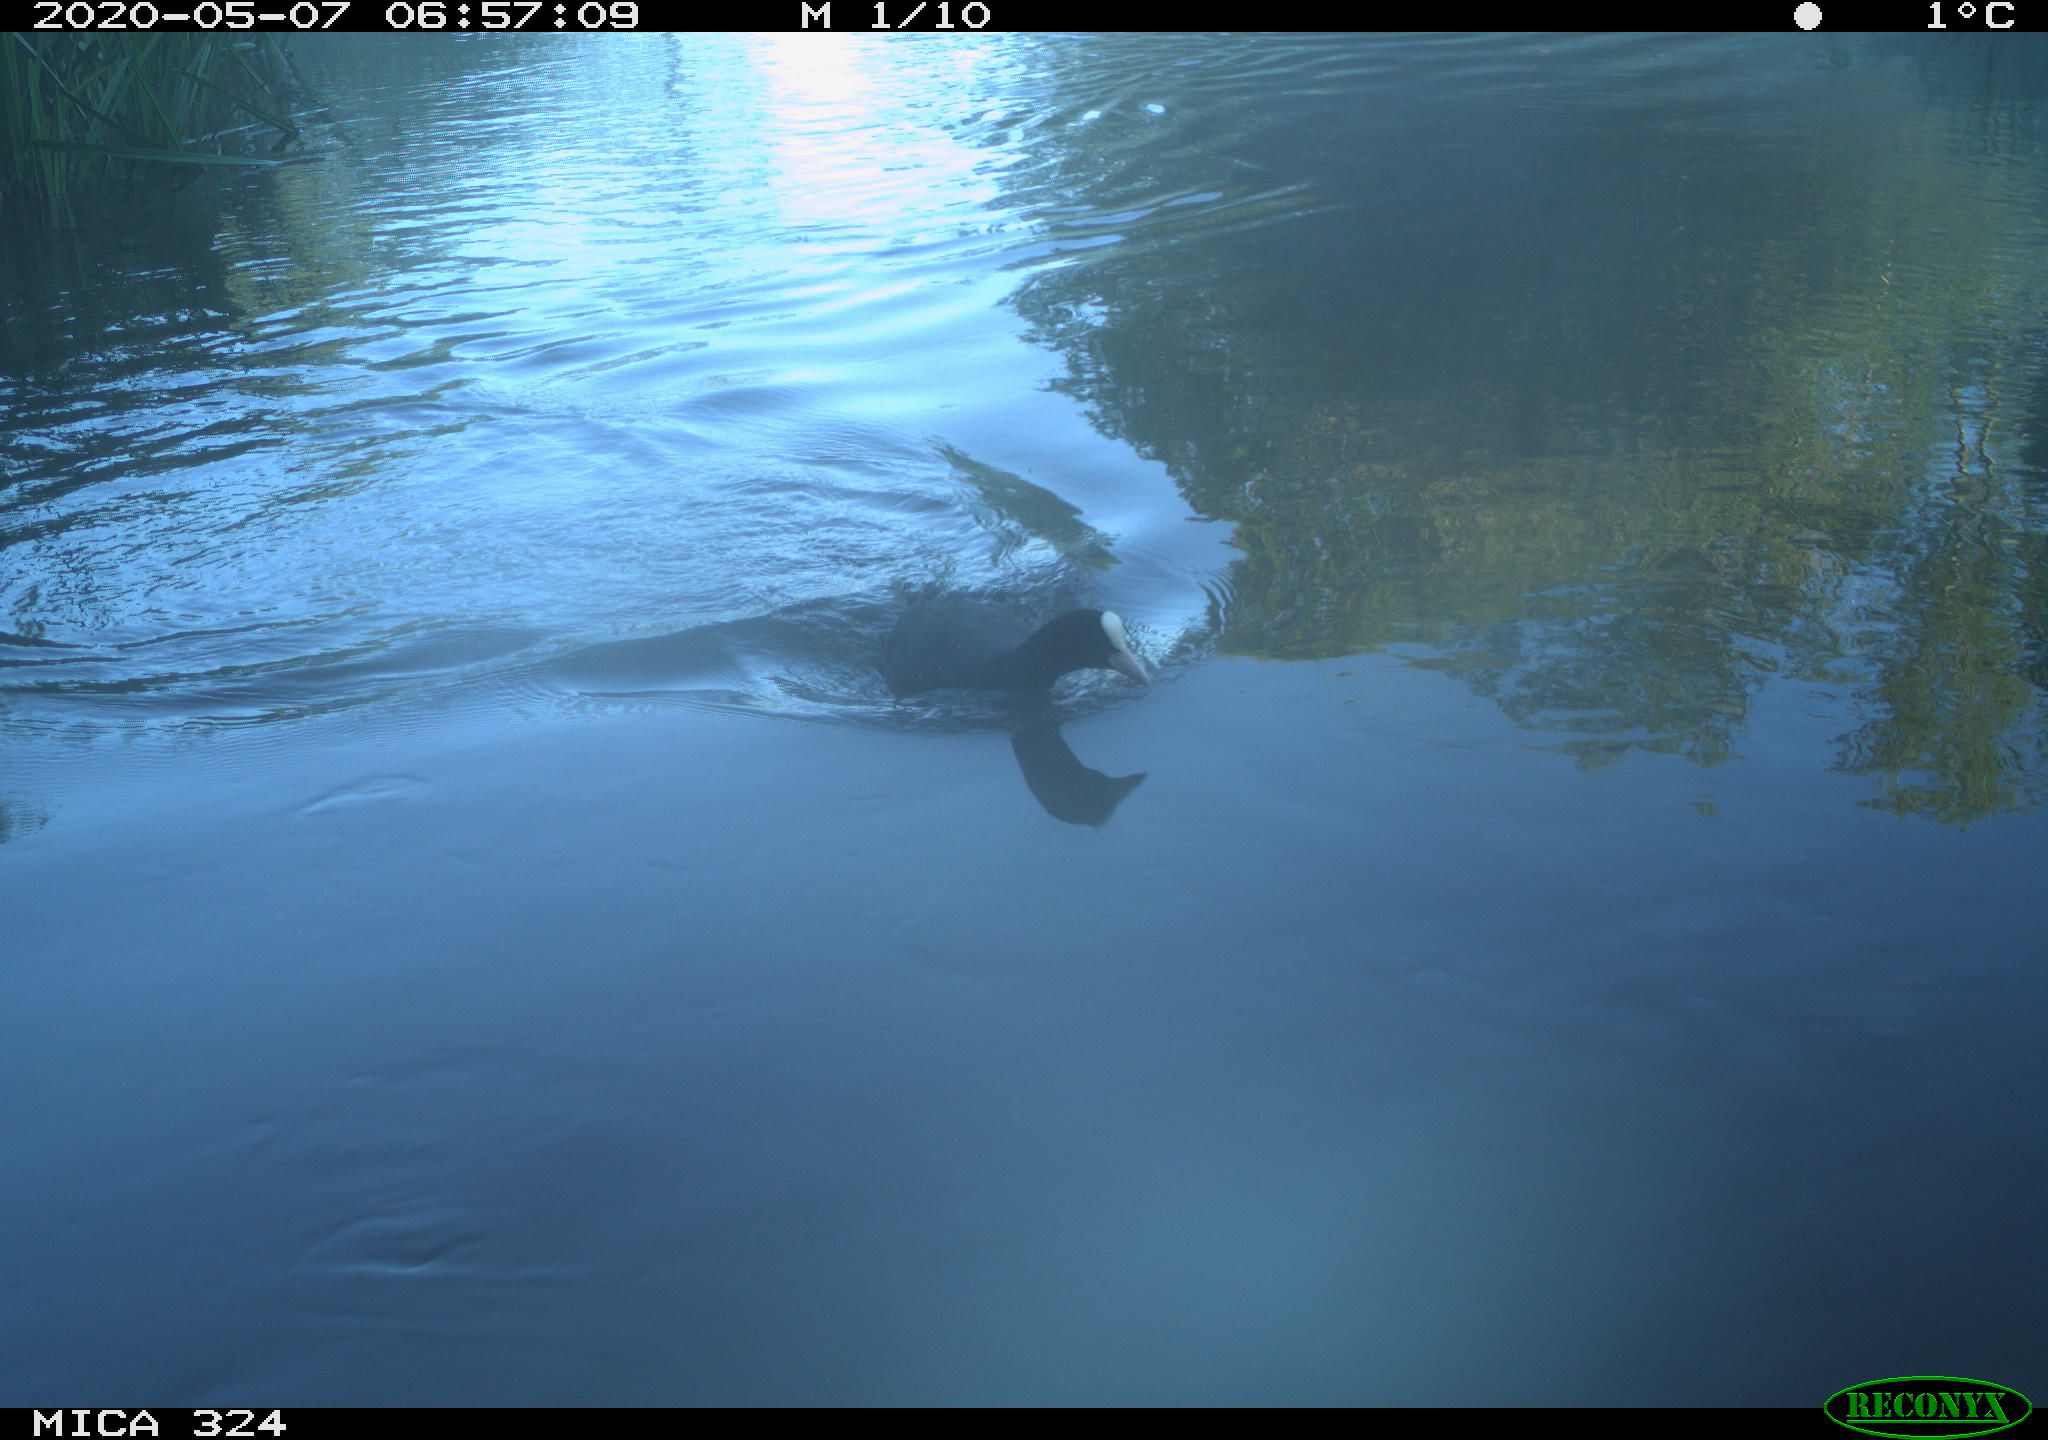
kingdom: Animalia
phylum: Chordata
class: Aves
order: Gruiformes
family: Rallidae
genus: Fulica
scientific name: Fulica atra
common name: Eurasian coot
